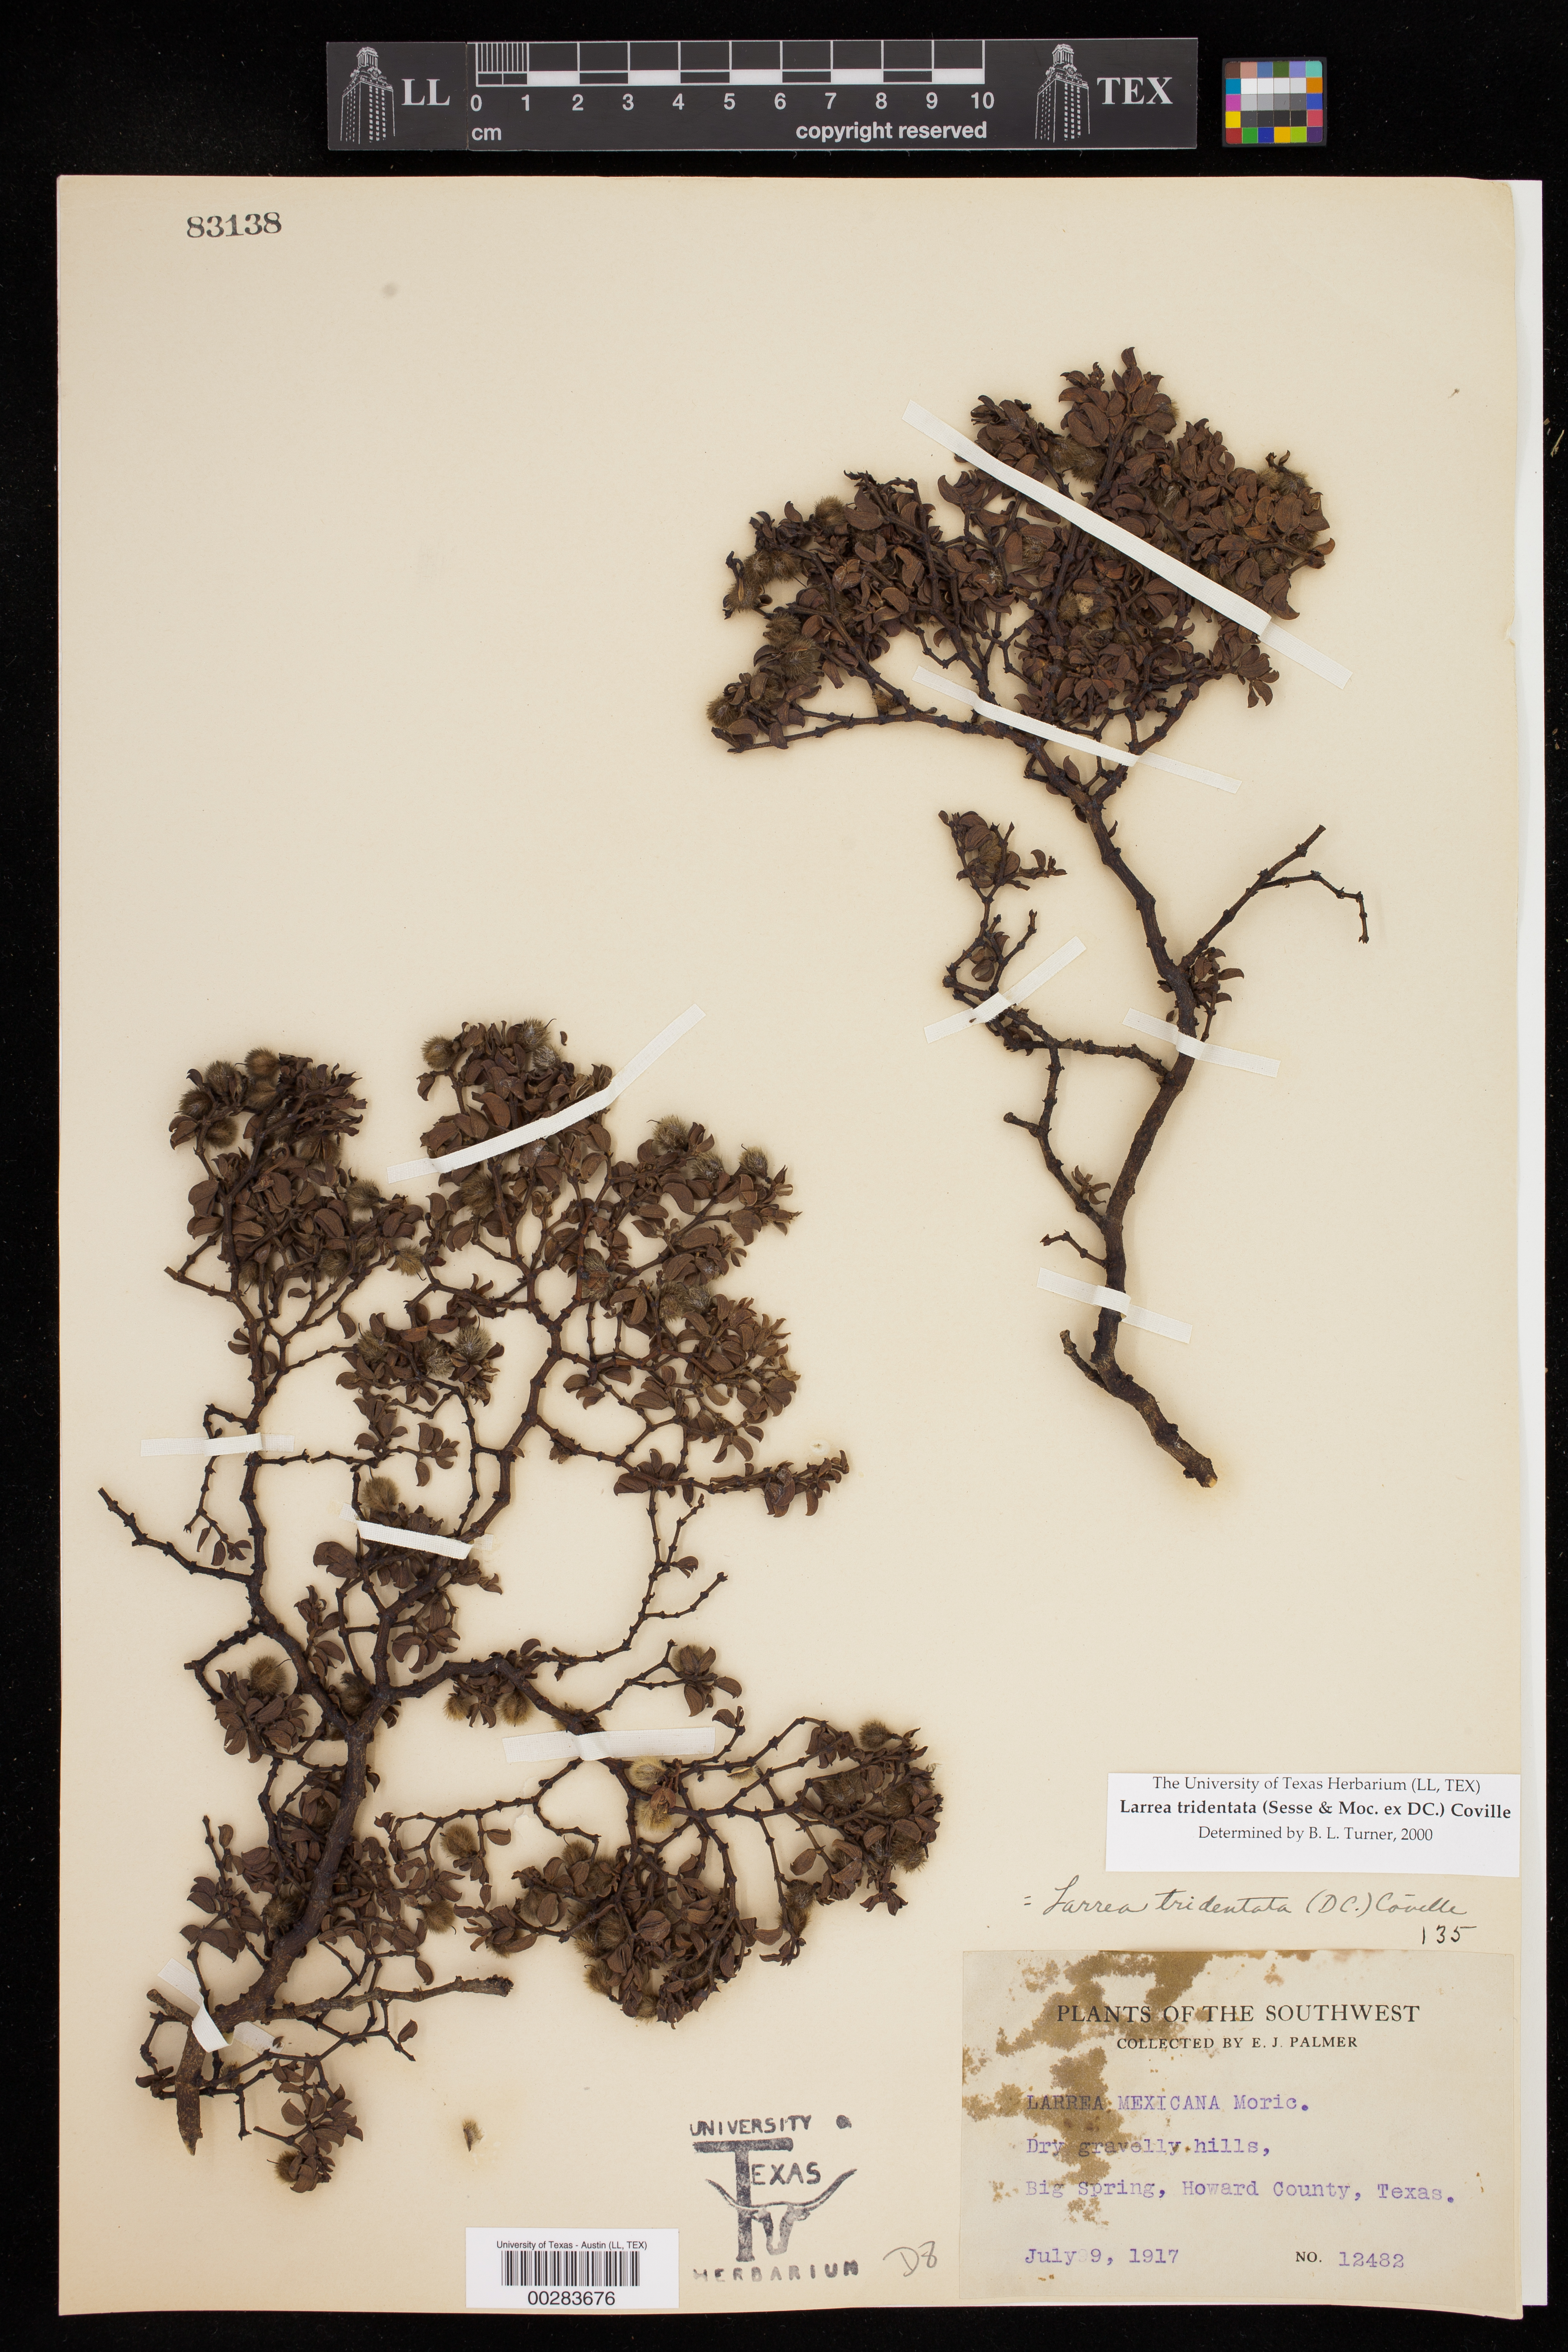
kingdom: Plantae
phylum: Tracheophyta
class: Magnoliopsida
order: Zygophyllales
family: Zygophyllaceae
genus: Larrea
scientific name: Larrea tridentata
